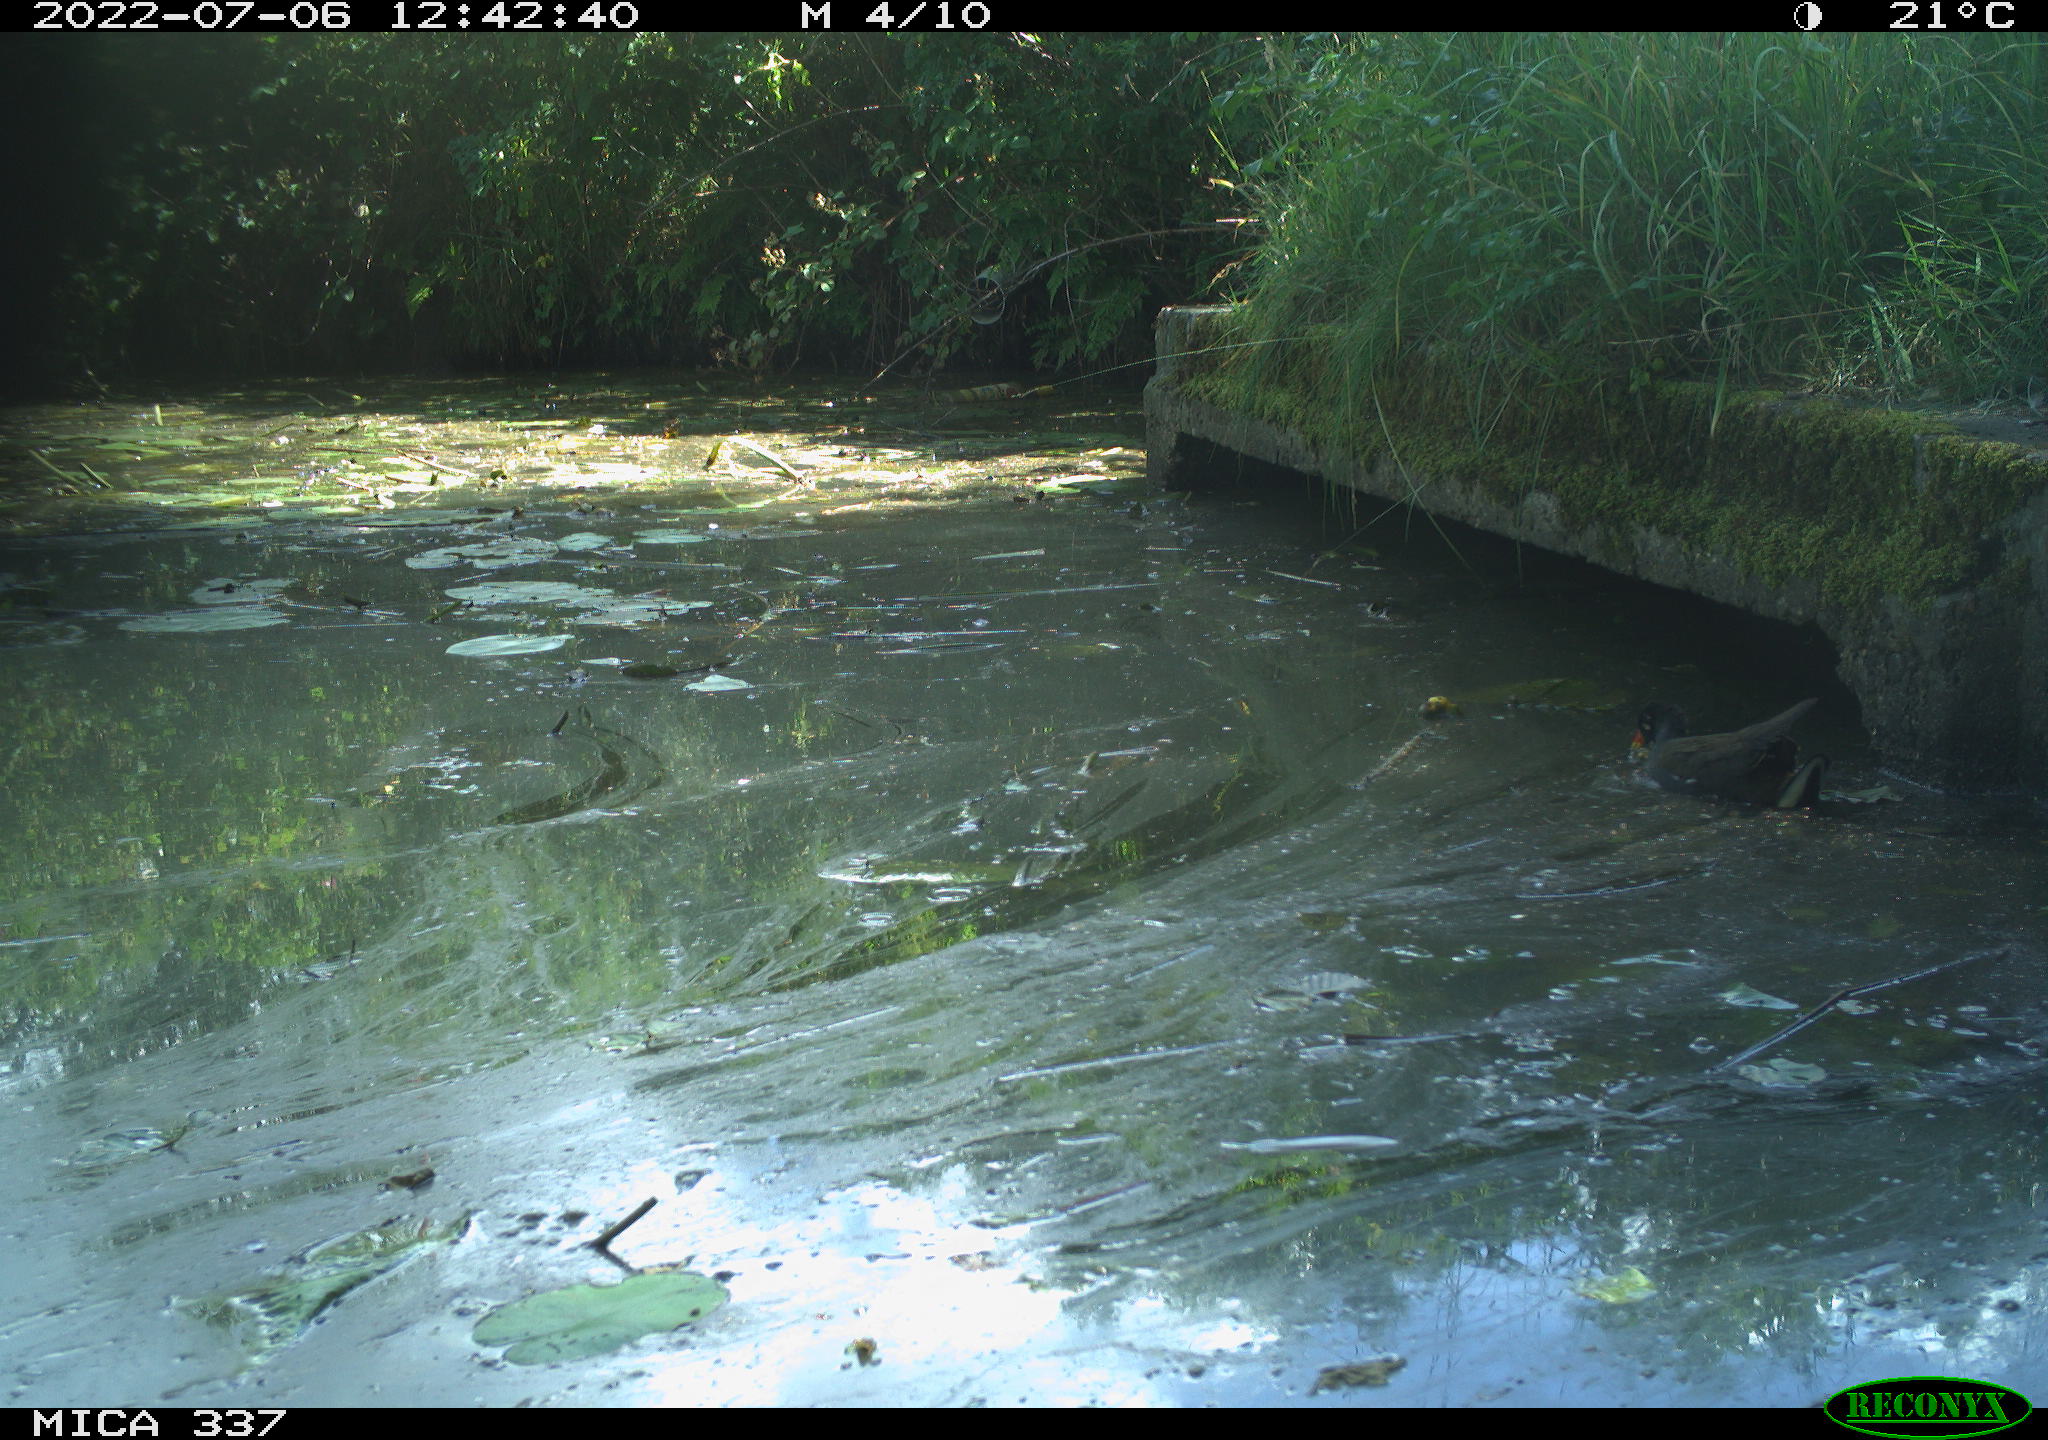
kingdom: Animalia
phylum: Chordata
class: Aves
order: Gruiformes
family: Rallidae
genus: Gallinula
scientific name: Gallinula chloropus
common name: Common moorhen
